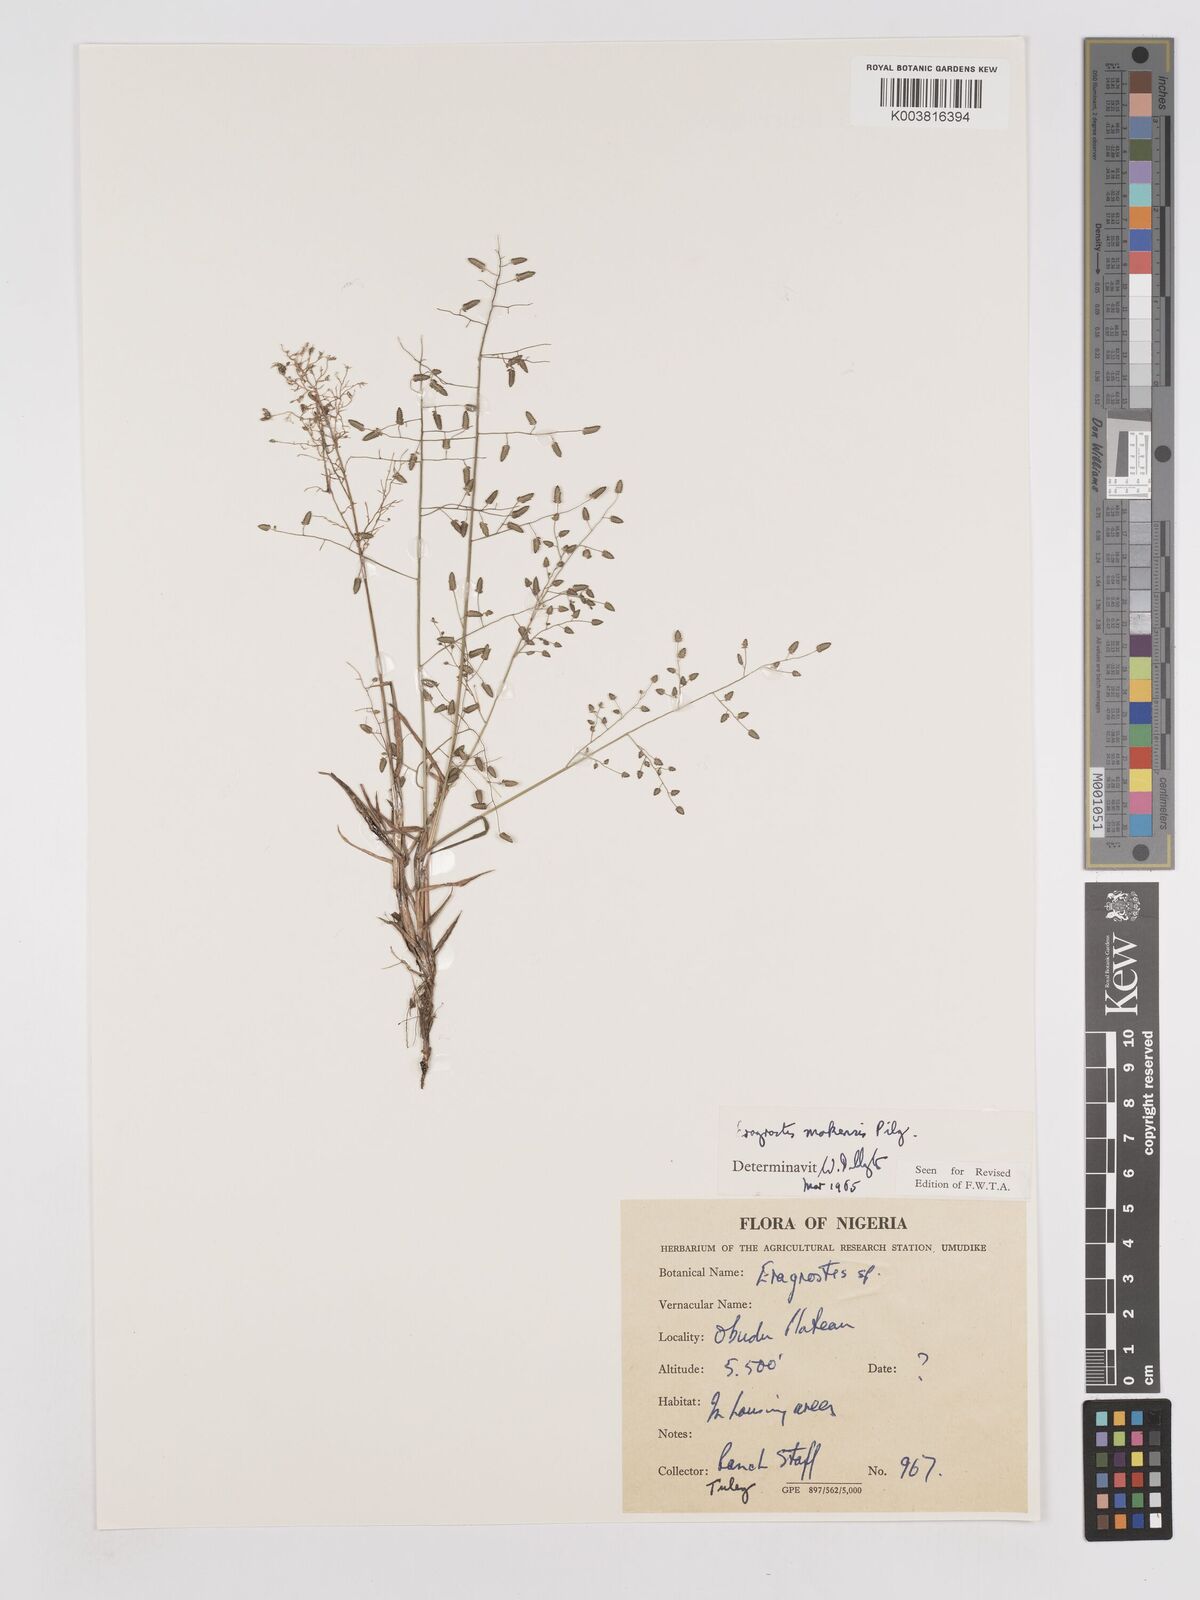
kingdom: Plantae
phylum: Tracheophyta
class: Liliopsida
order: Poales
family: Poaceae
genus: Eragrostis
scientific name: Eragrostis mokensis
